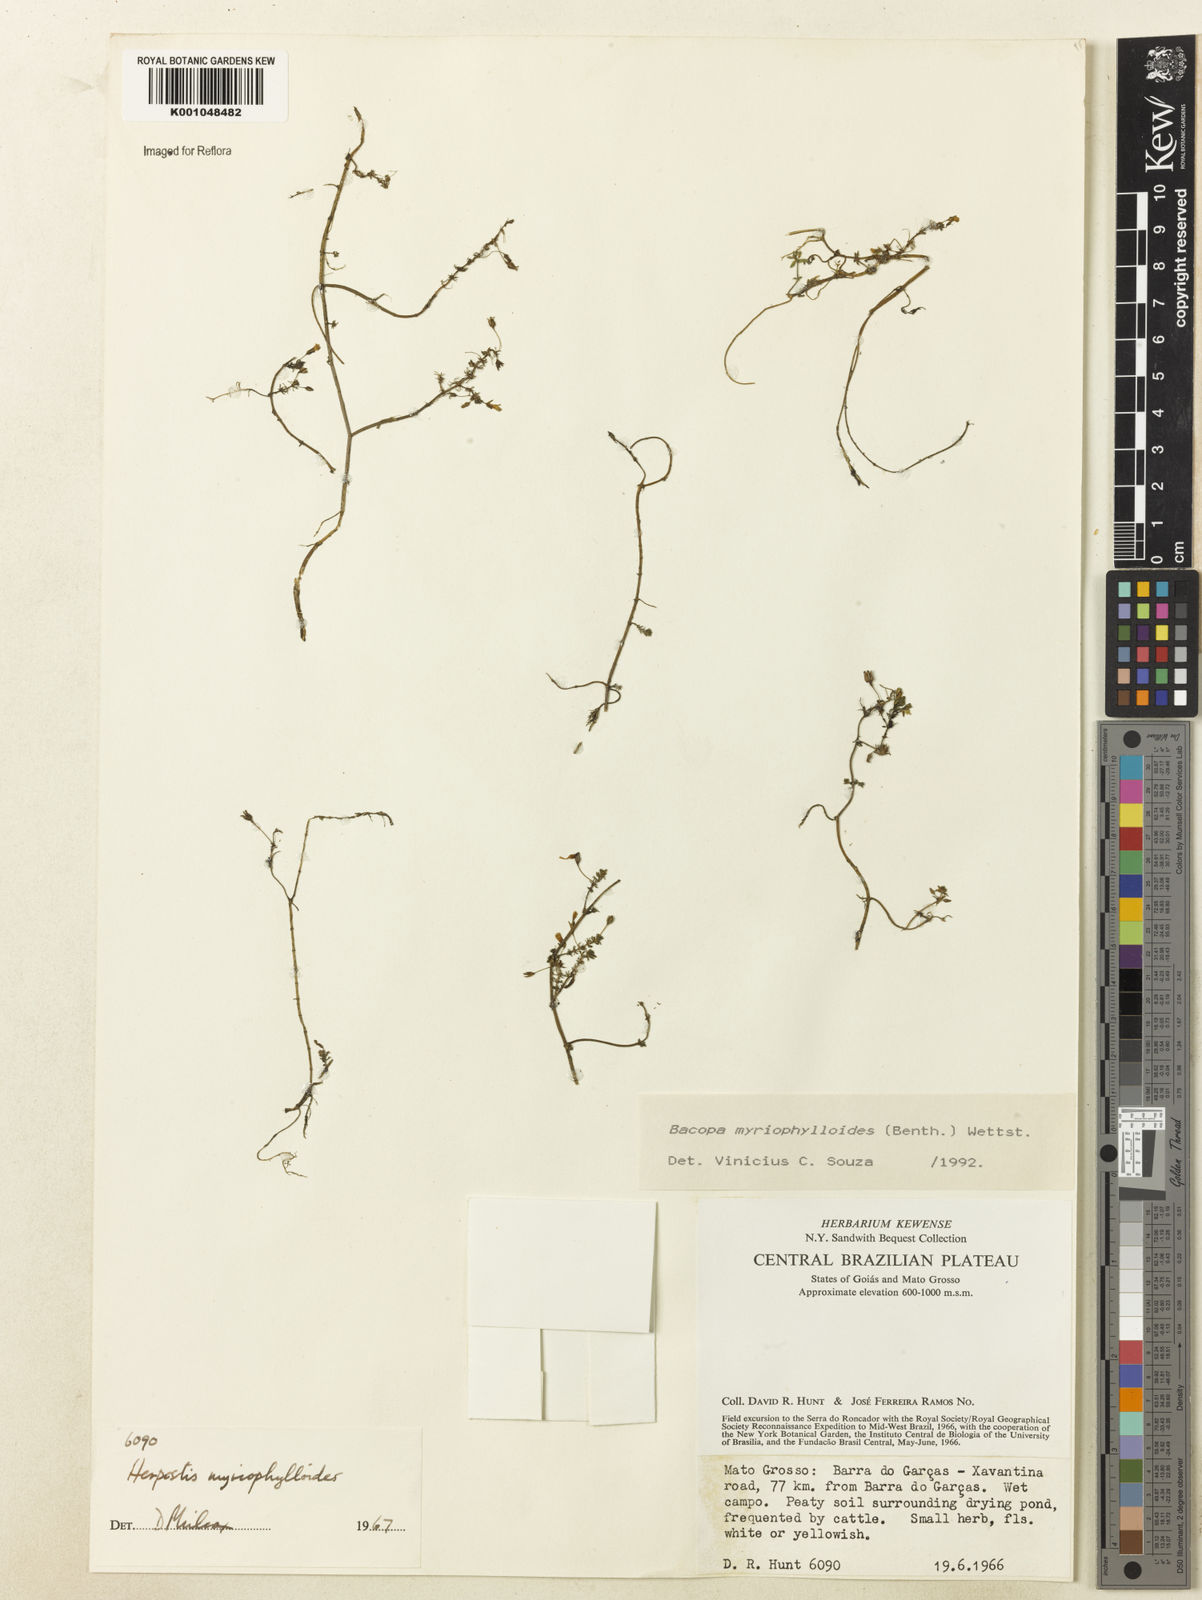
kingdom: Plantae
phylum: Tracheophyta
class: Magnoliopsida
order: Lamiales
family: Plantaginaceae
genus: Bacopa
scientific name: Bacopa myriophylloides
